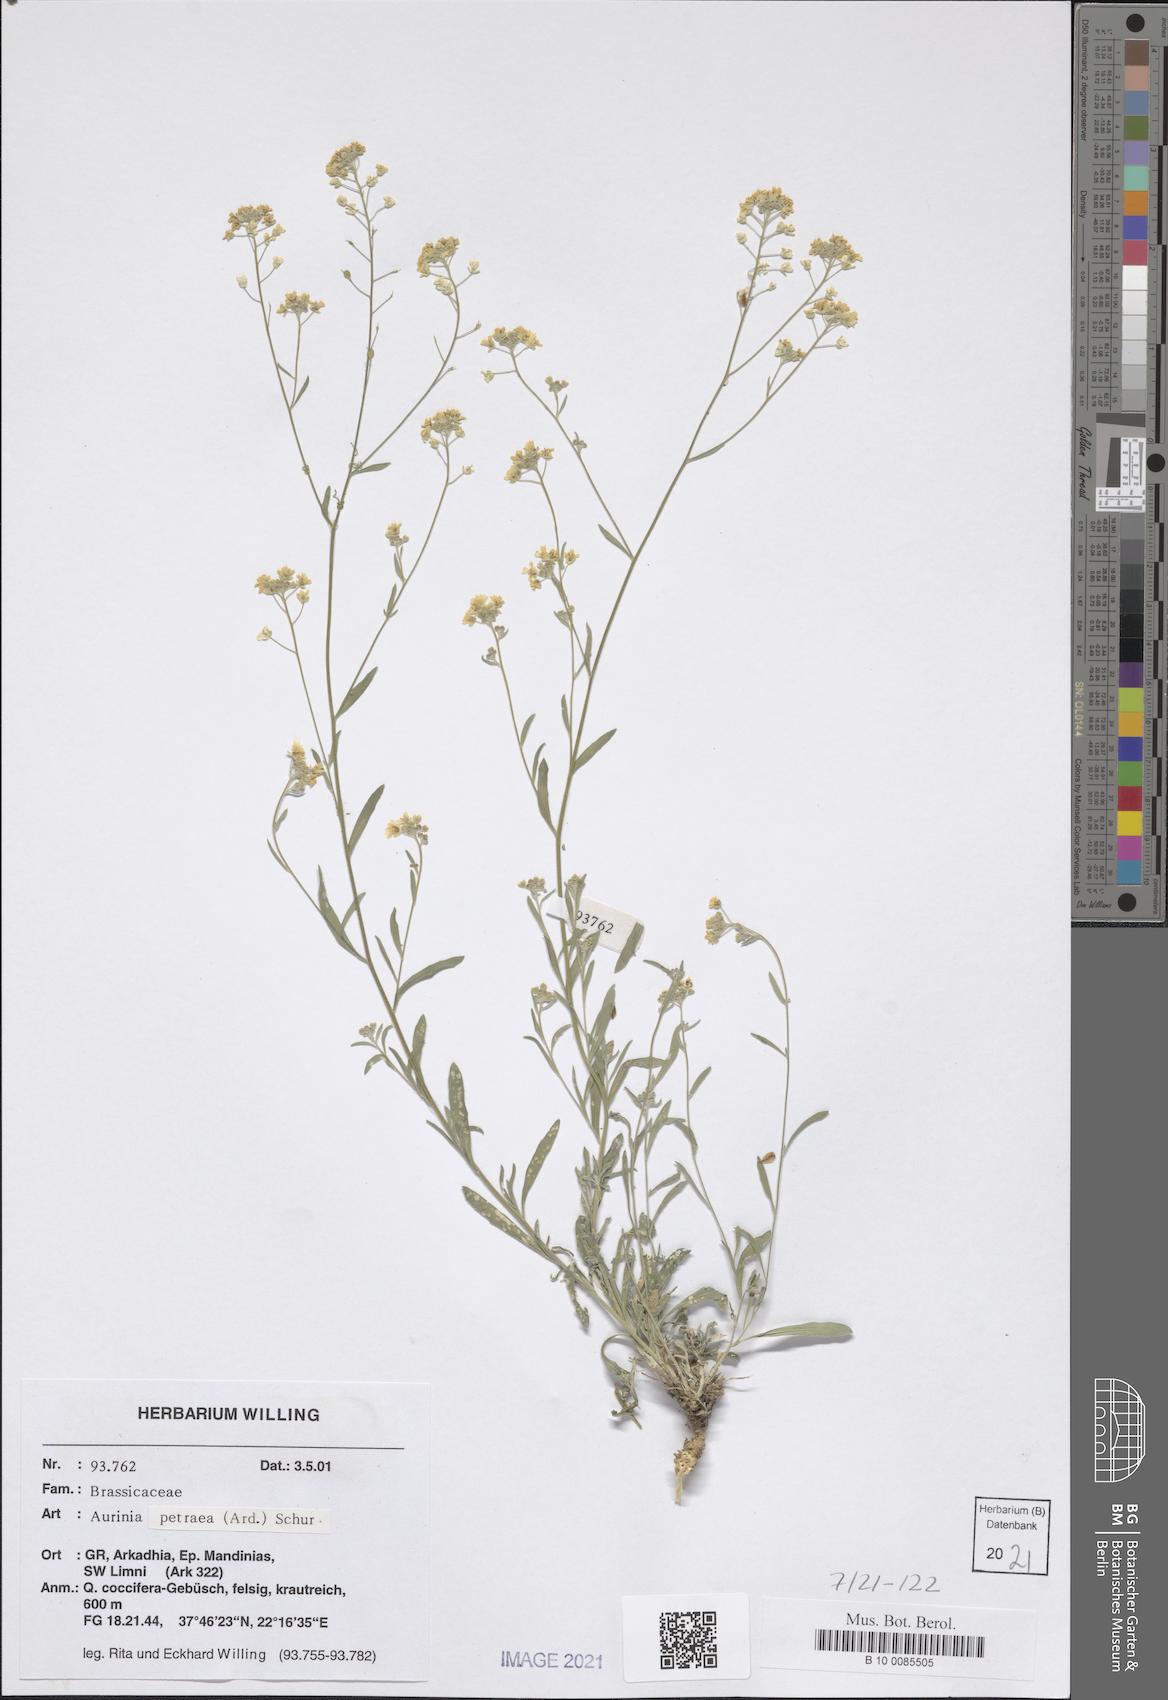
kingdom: Plantae
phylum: Tracheophyta
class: Magnoliopsida
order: Brassicales
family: Brassicaceae
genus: Aurinia
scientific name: Aurinia petraea
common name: Goldentuft
